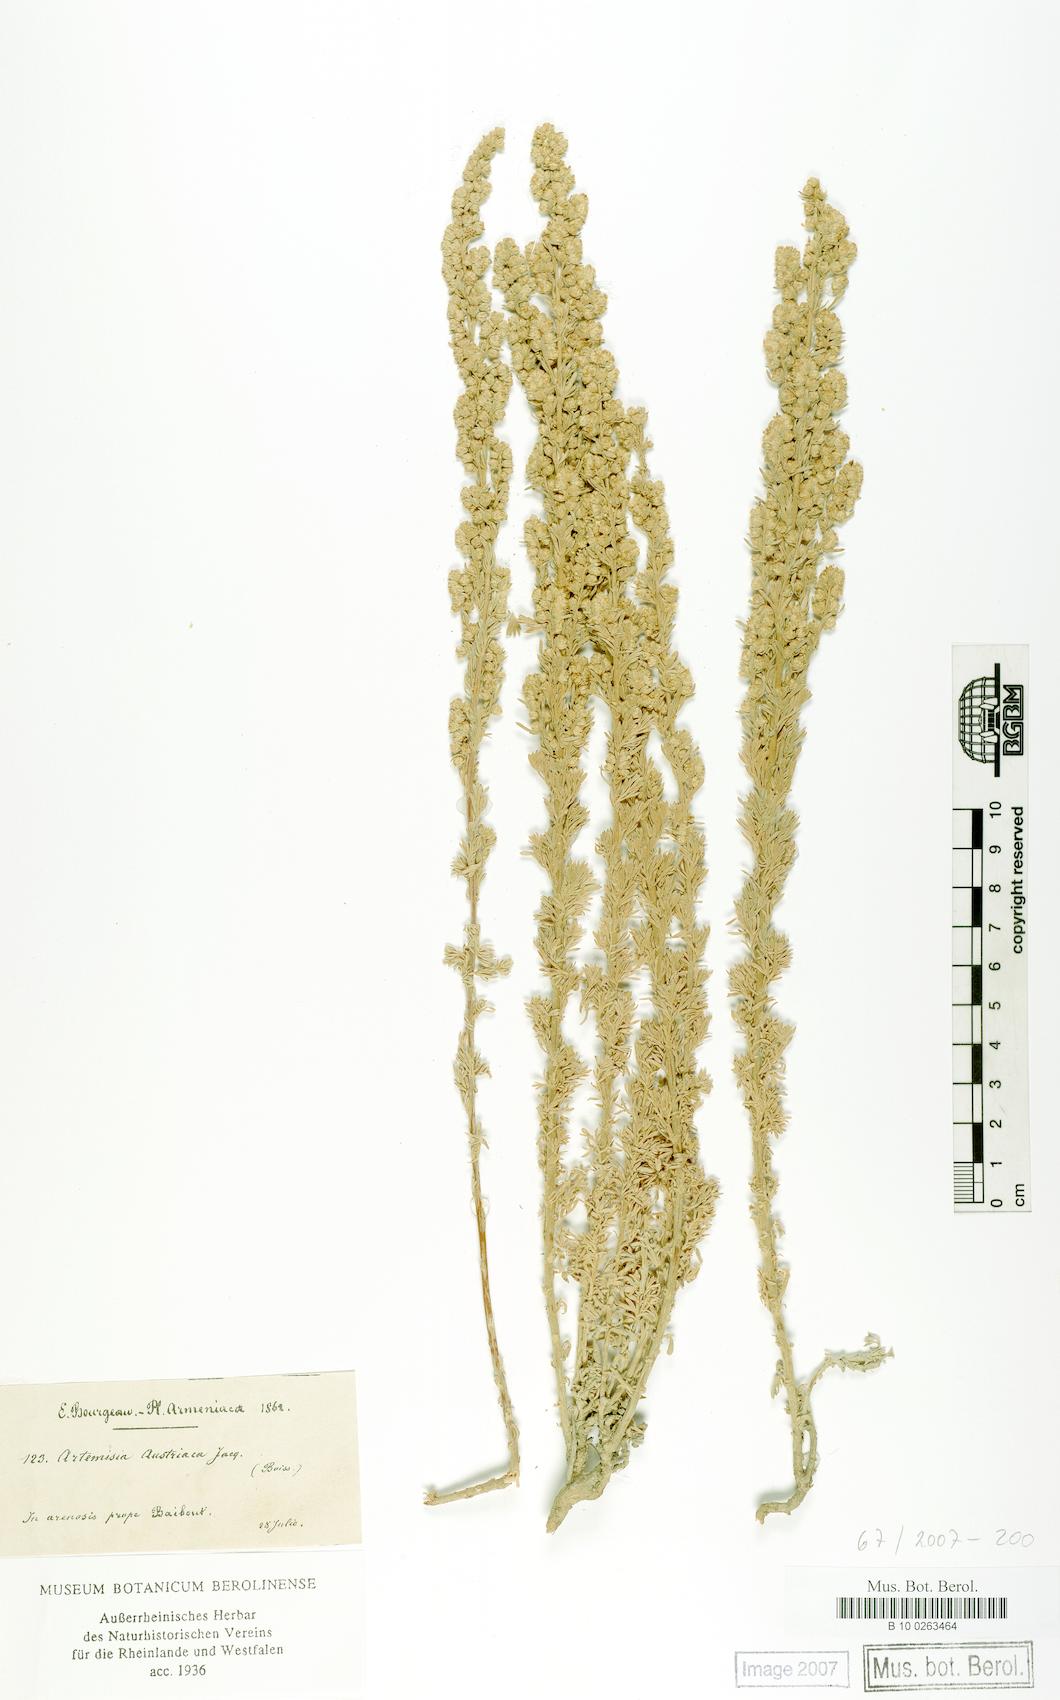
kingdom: Plantae
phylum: Tracheophyta
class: Magnoliopsida
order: Asterales
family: Asteraceae
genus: Artemisia
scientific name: Artemisia austriaca
